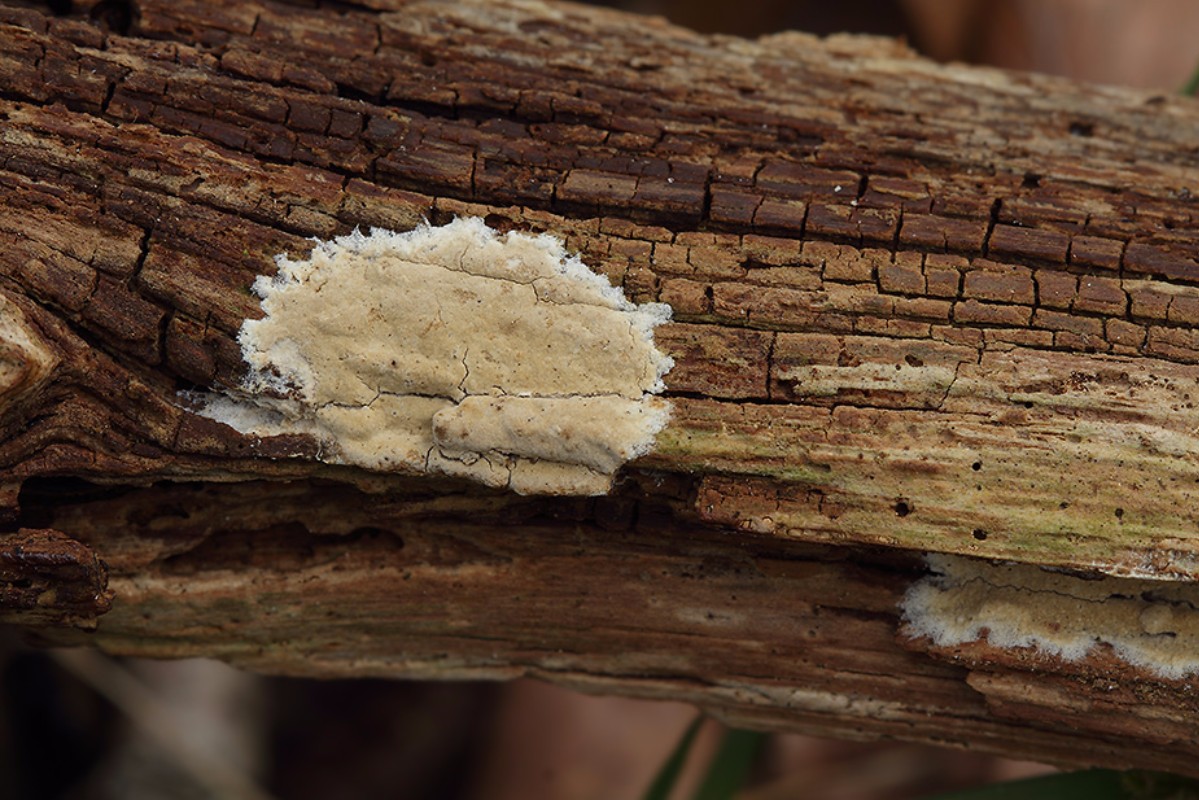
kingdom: Fungi
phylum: Basidiomycota
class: Agaricomycetes
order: Boletales
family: Coniophoraceae
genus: Coniophora
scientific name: Coniophora arida
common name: tynd tømmersvamp
